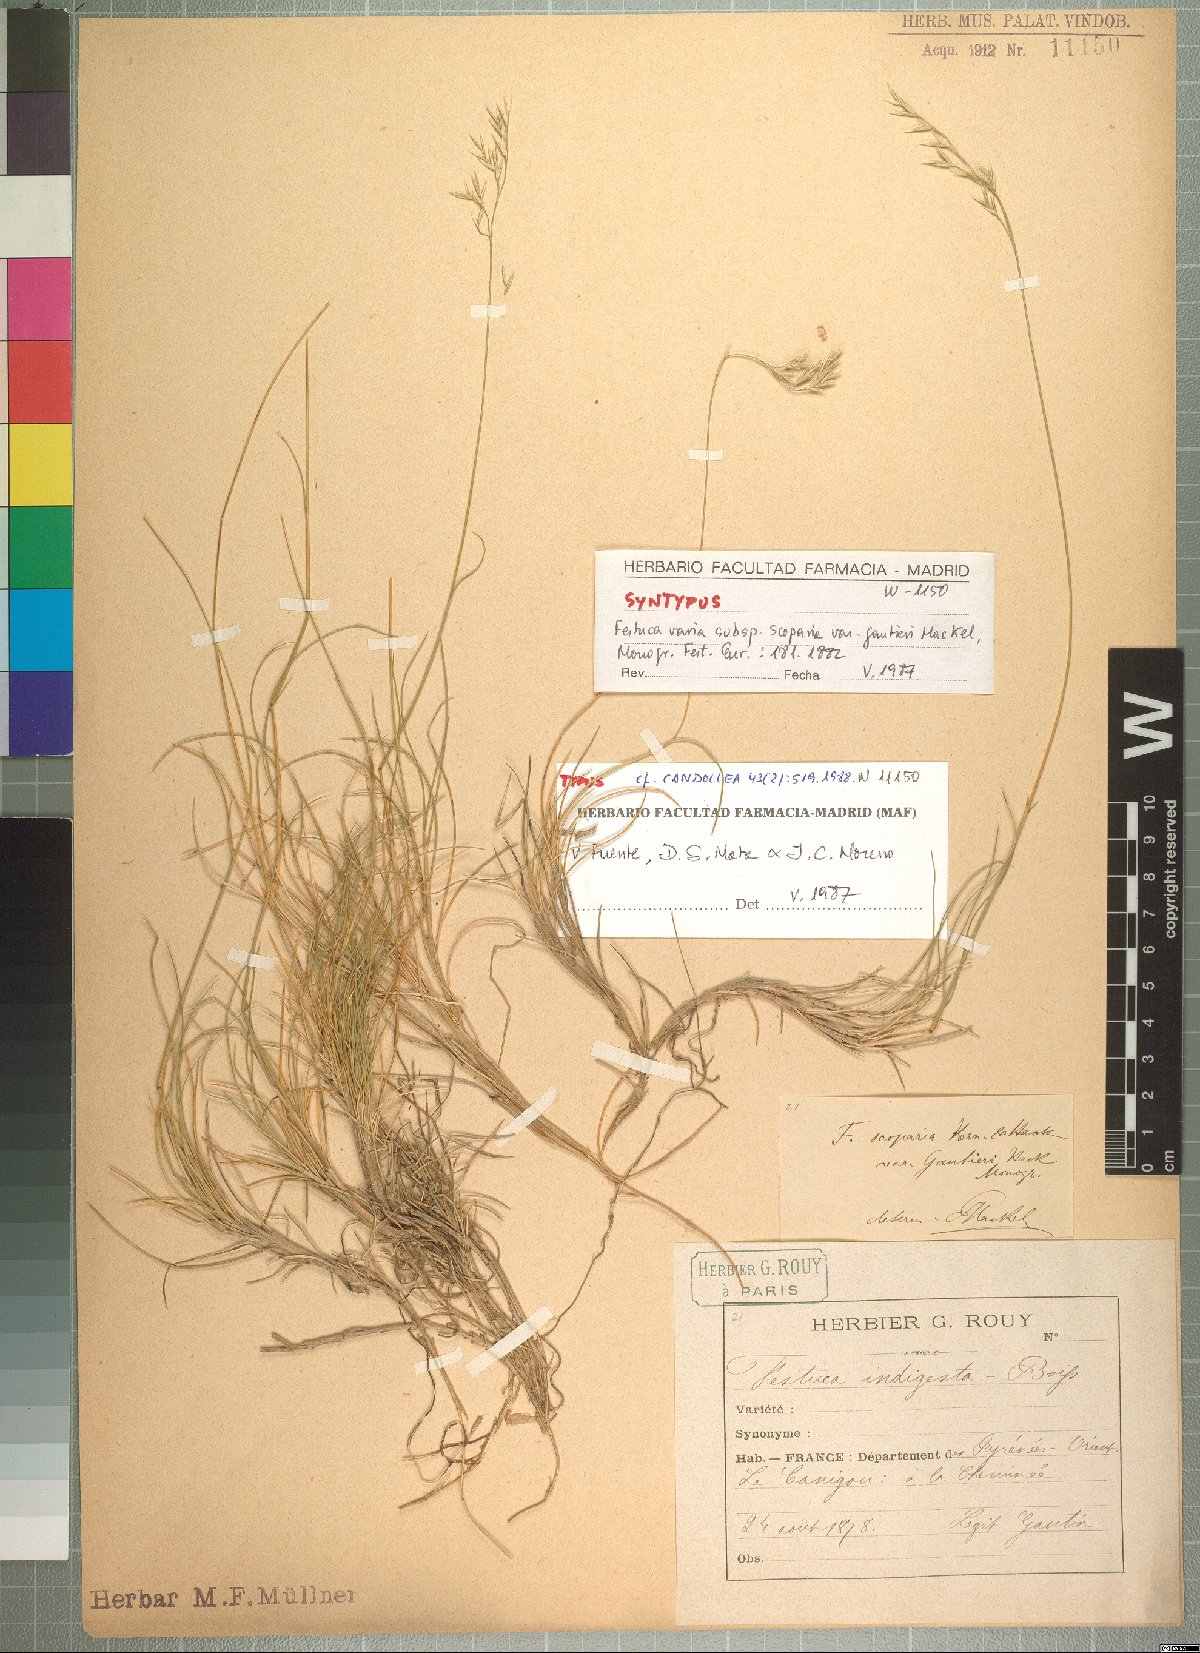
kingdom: Plantae
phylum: Tracheophyta
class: Liliopsida
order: Poales
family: Poaceae
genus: Festuca
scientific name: Festuca gautieri
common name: Spiky fescue
